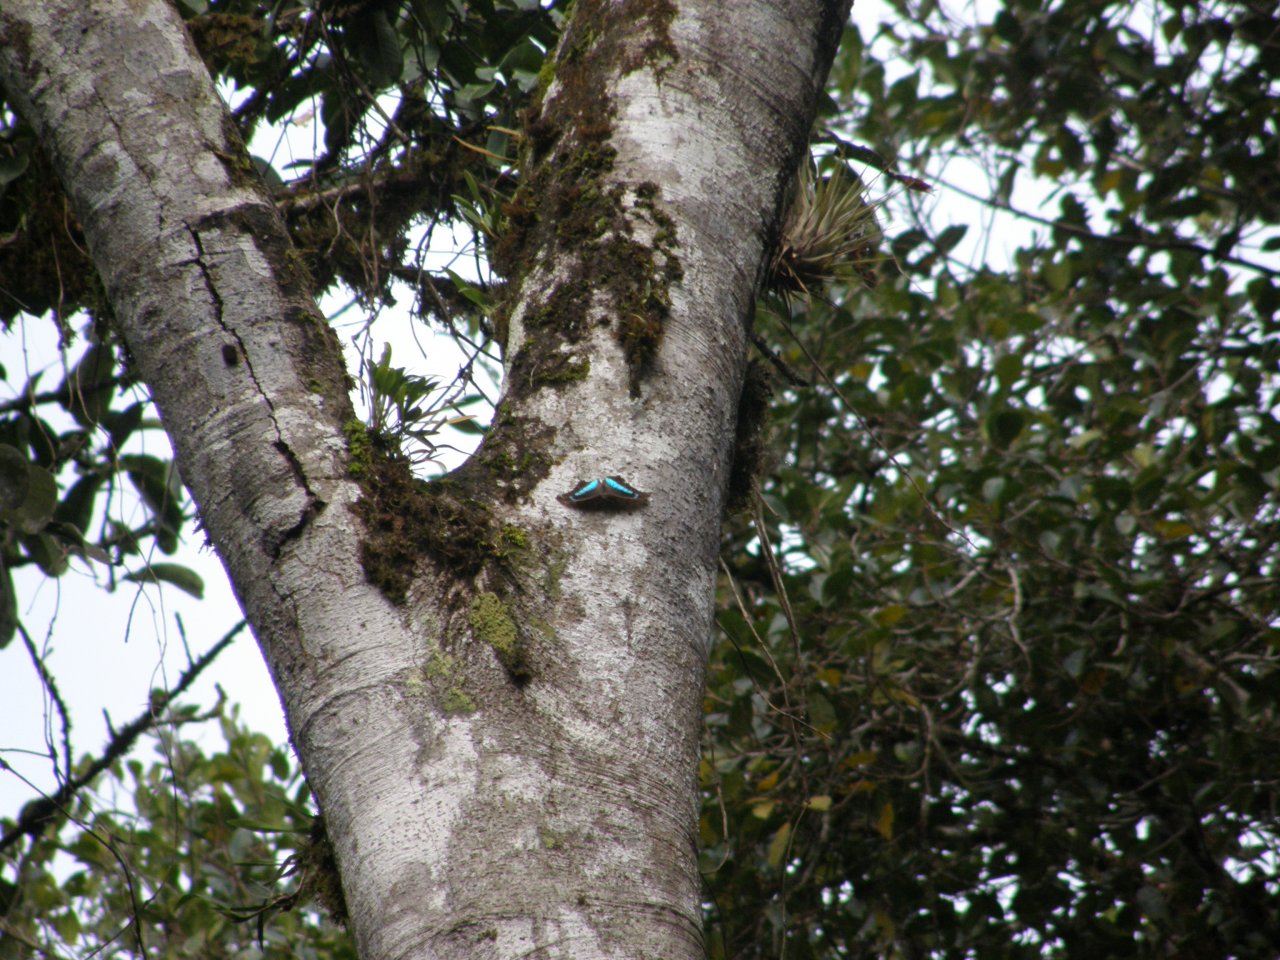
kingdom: Animalia
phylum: Arthropoda
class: Insecta
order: Lepidoptera
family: Nymphalidae
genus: Prepona
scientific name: Prepona demophoon
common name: Two-spotted Prepona
